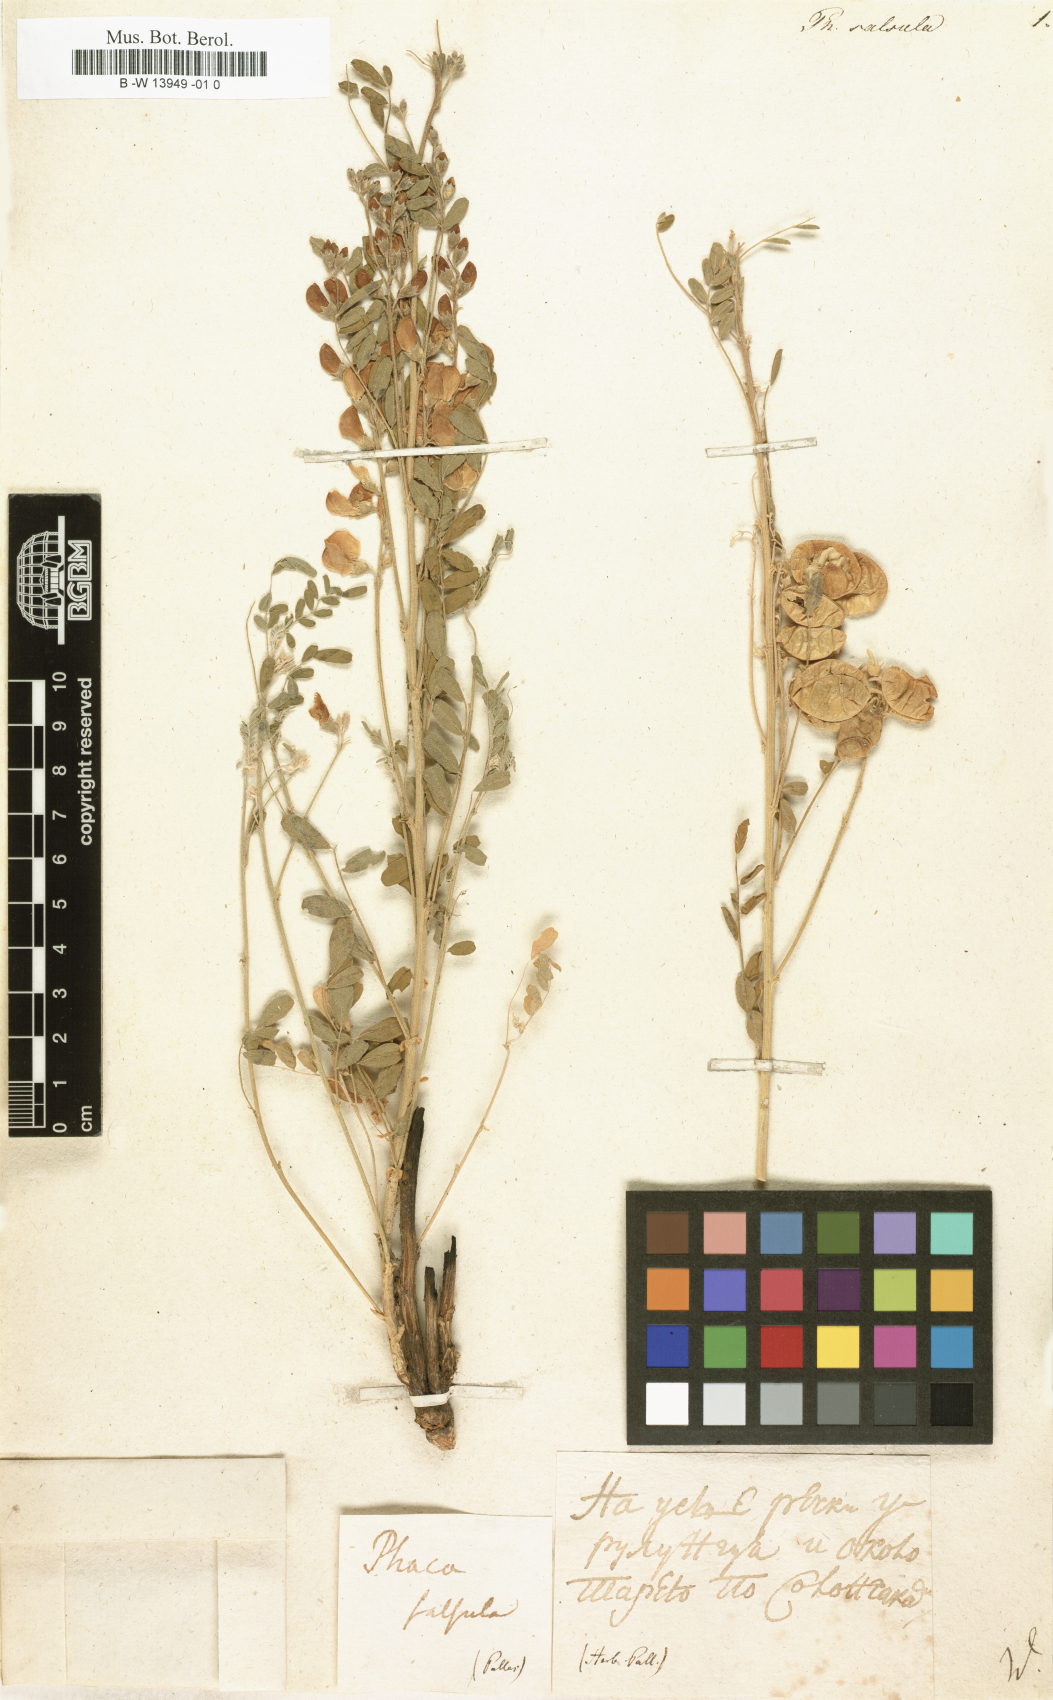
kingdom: Plantae
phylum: Tracheophyta
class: Magnoliopsida
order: Fabales
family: Fabaceae
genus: Sphaerophysa
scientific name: Sphaerophysa salsula
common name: Alkali swainsonpea
